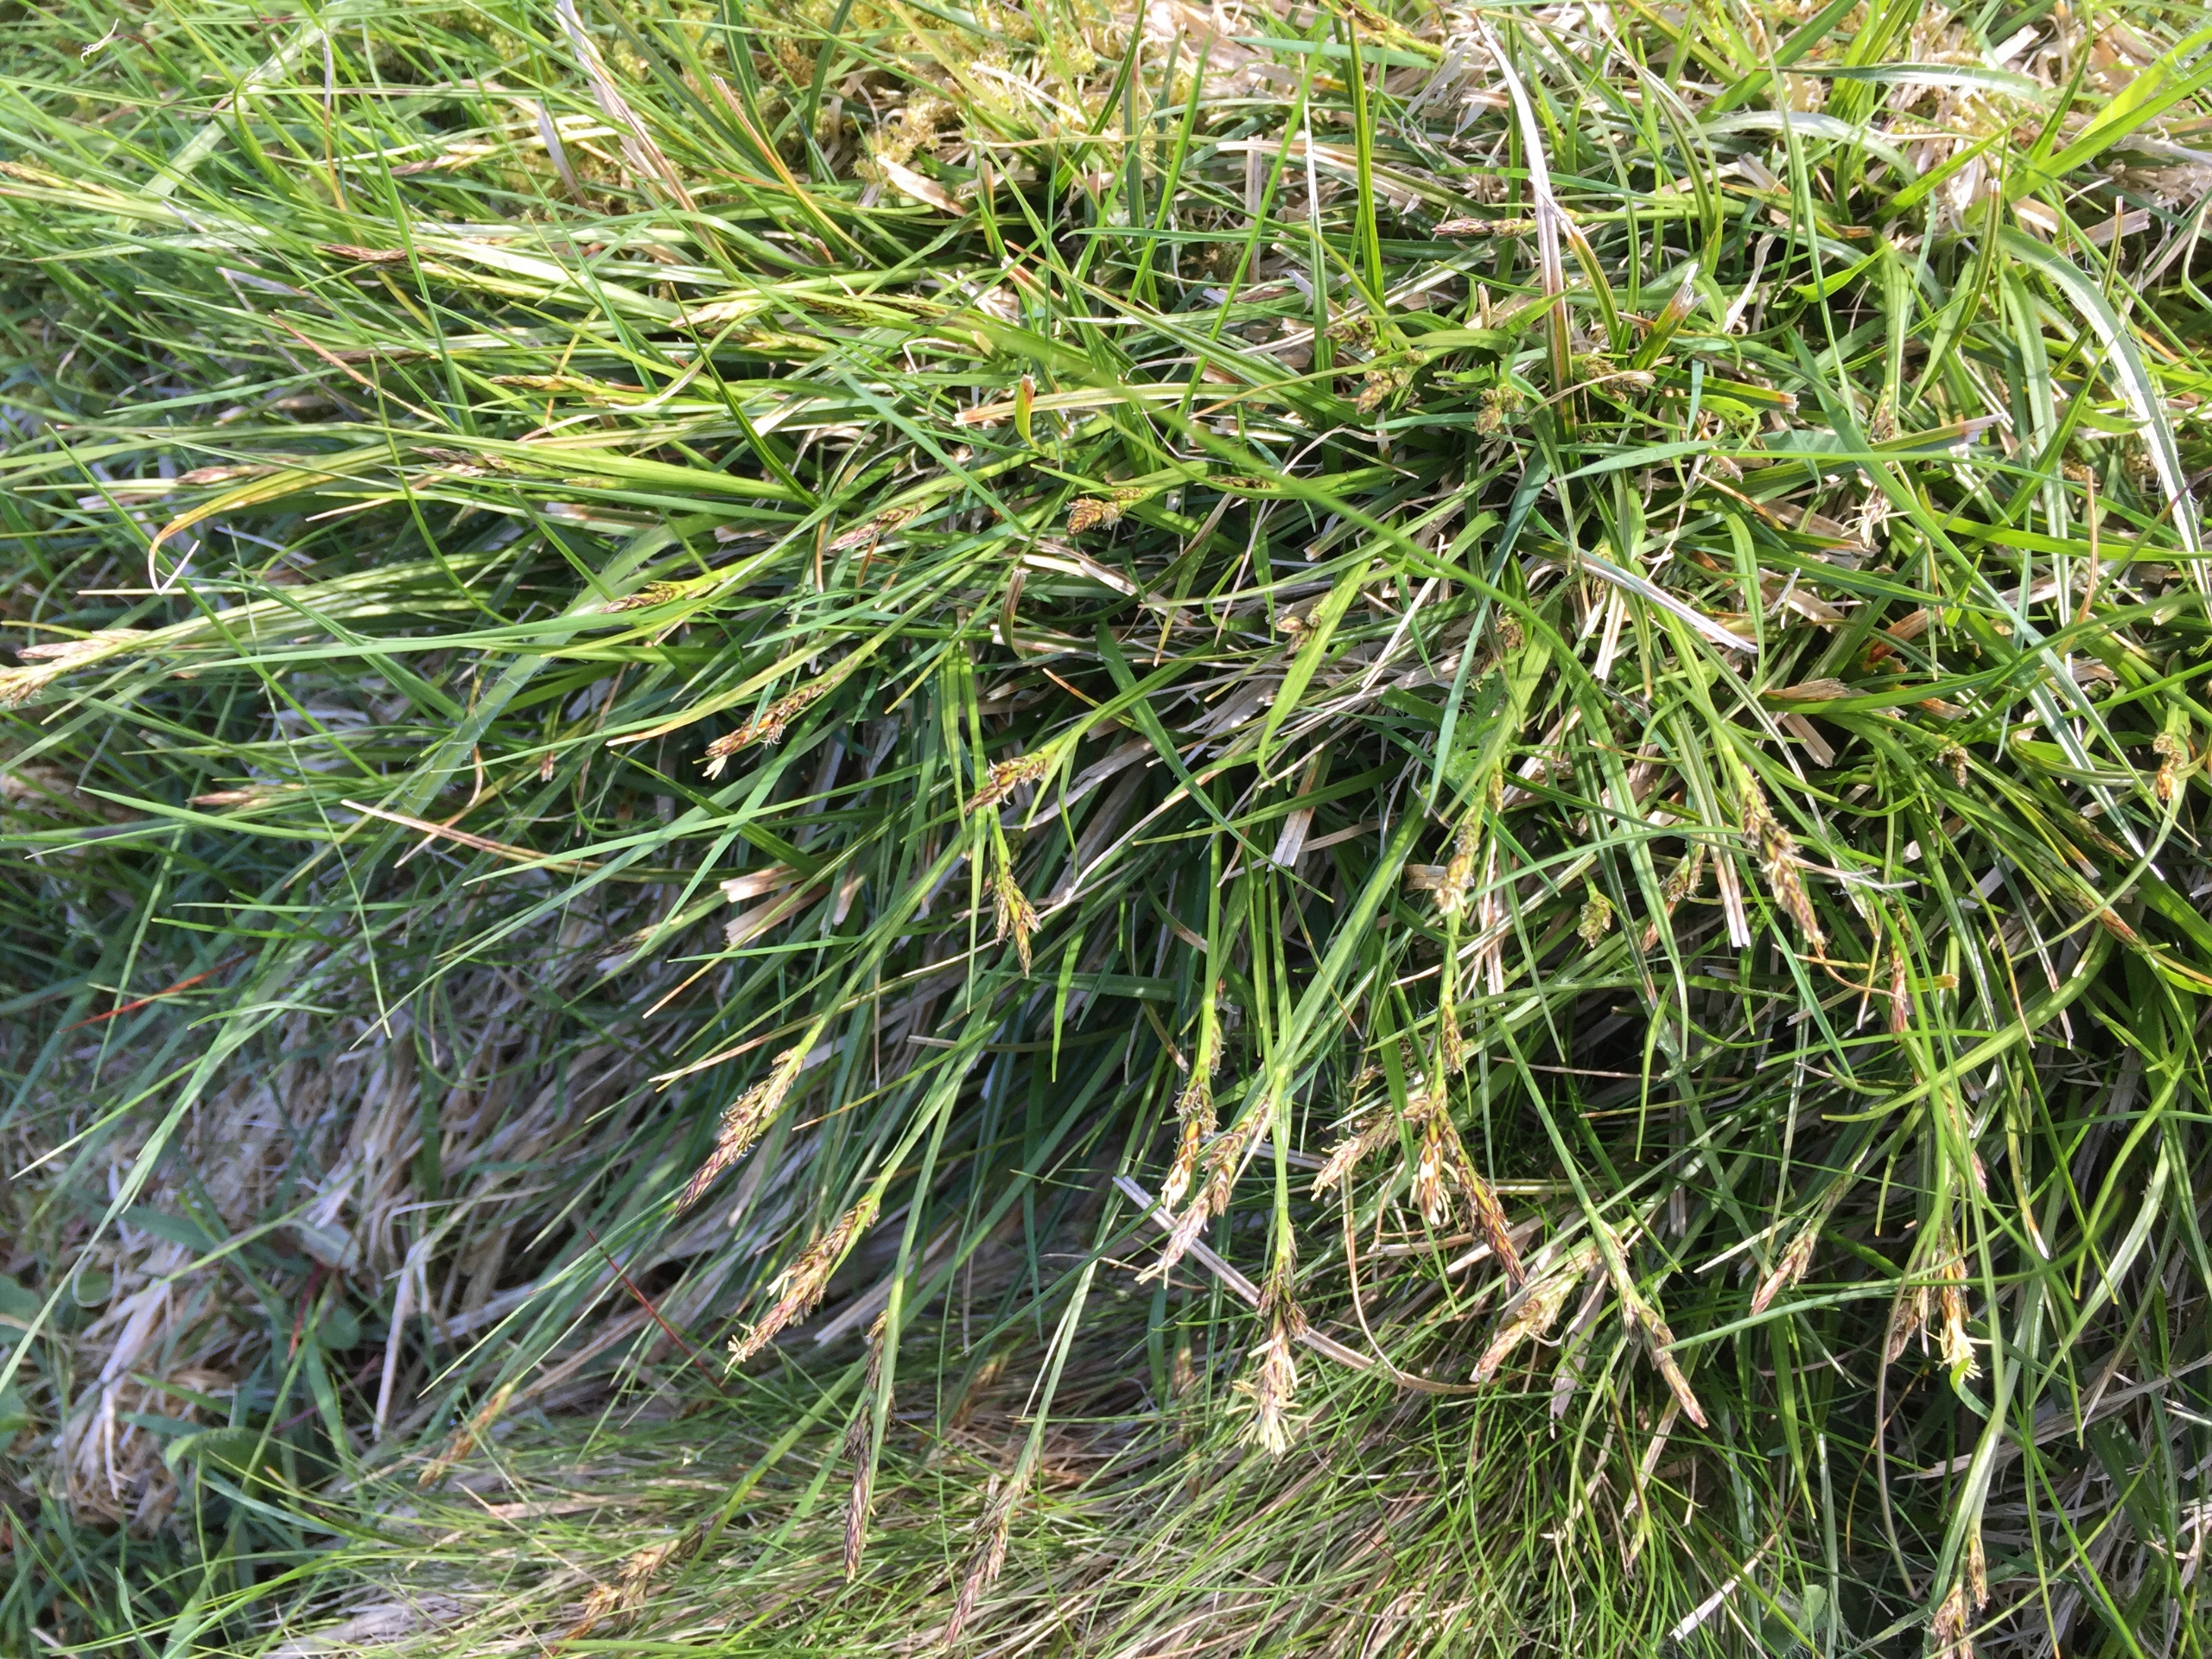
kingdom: Plantae
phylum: Tracheophyta
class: Liliopsida
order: Poales
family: Cyperaceae
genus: Carex
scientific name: Carex pilulifera
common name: Pille-star
